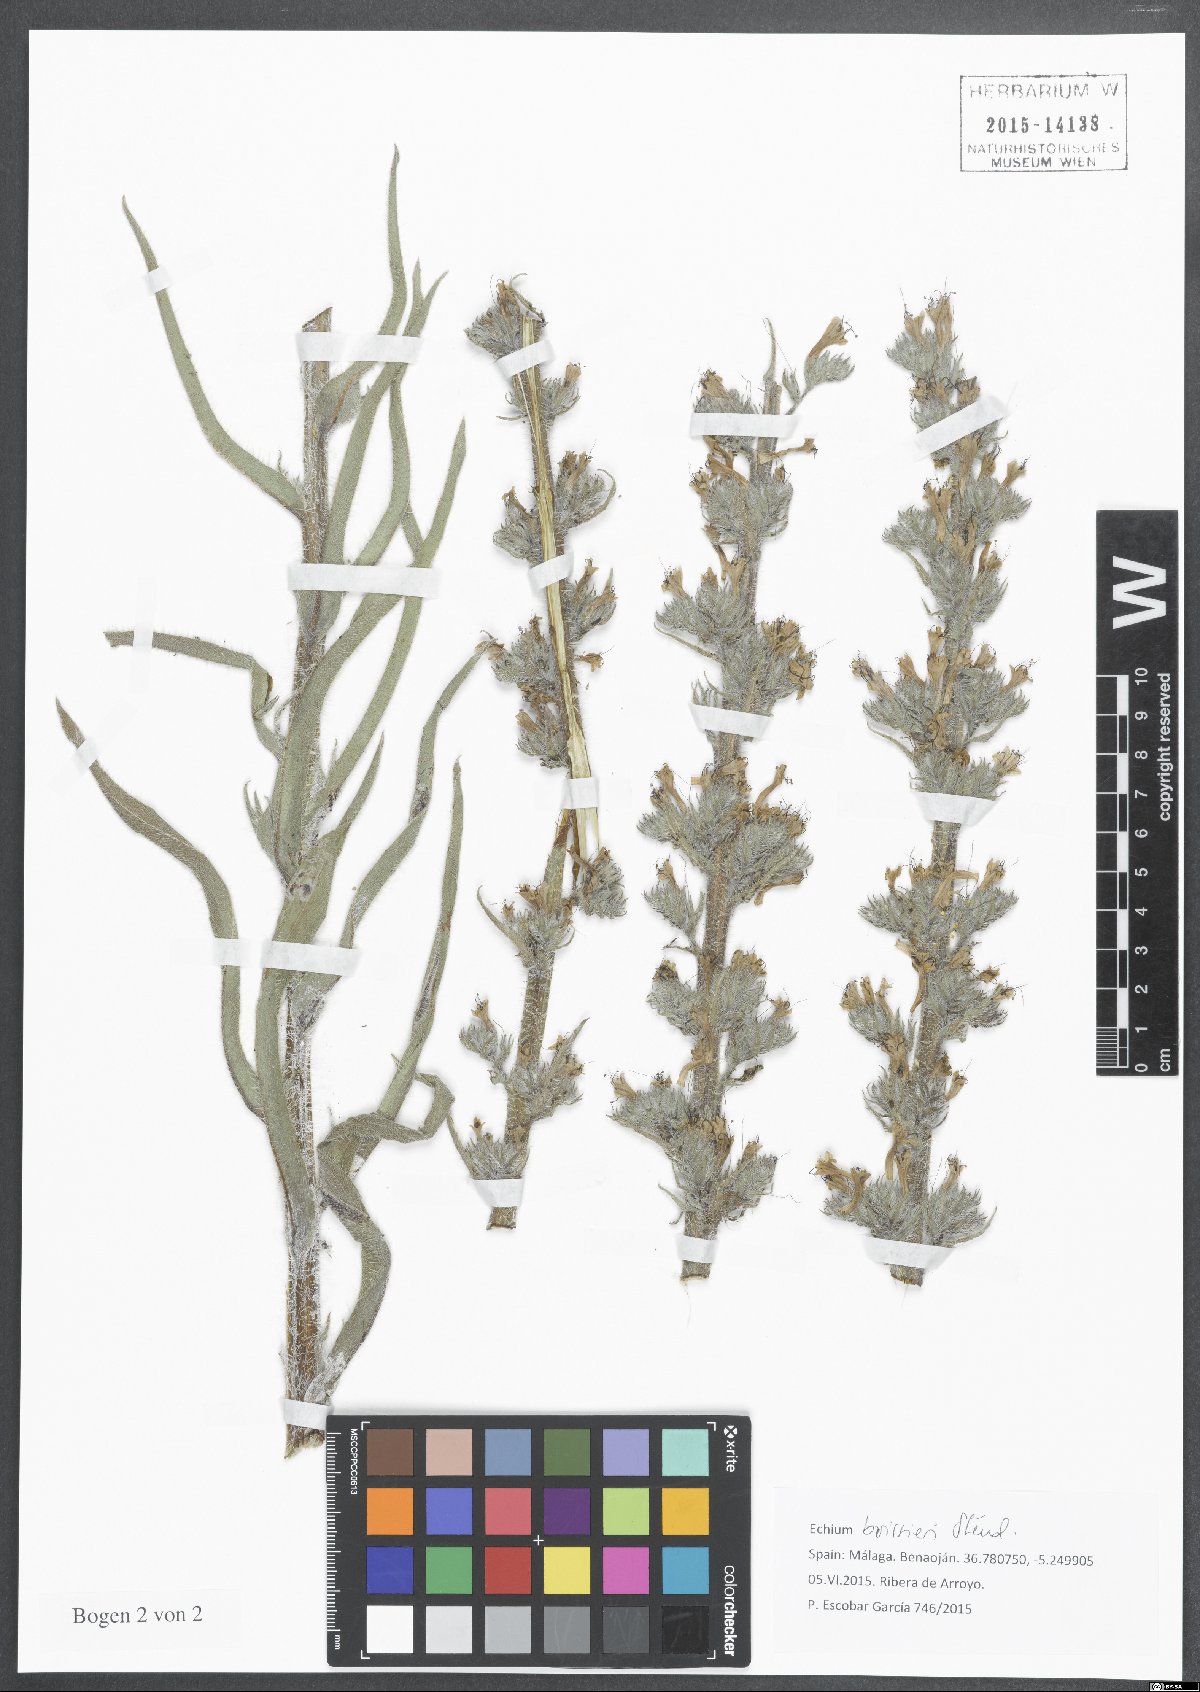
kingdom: Plantae
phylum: Tracheophyta
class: Magnoliopsida
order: Boraginales
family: Boraginaceae
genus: Echium
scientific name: Echium boissieri
